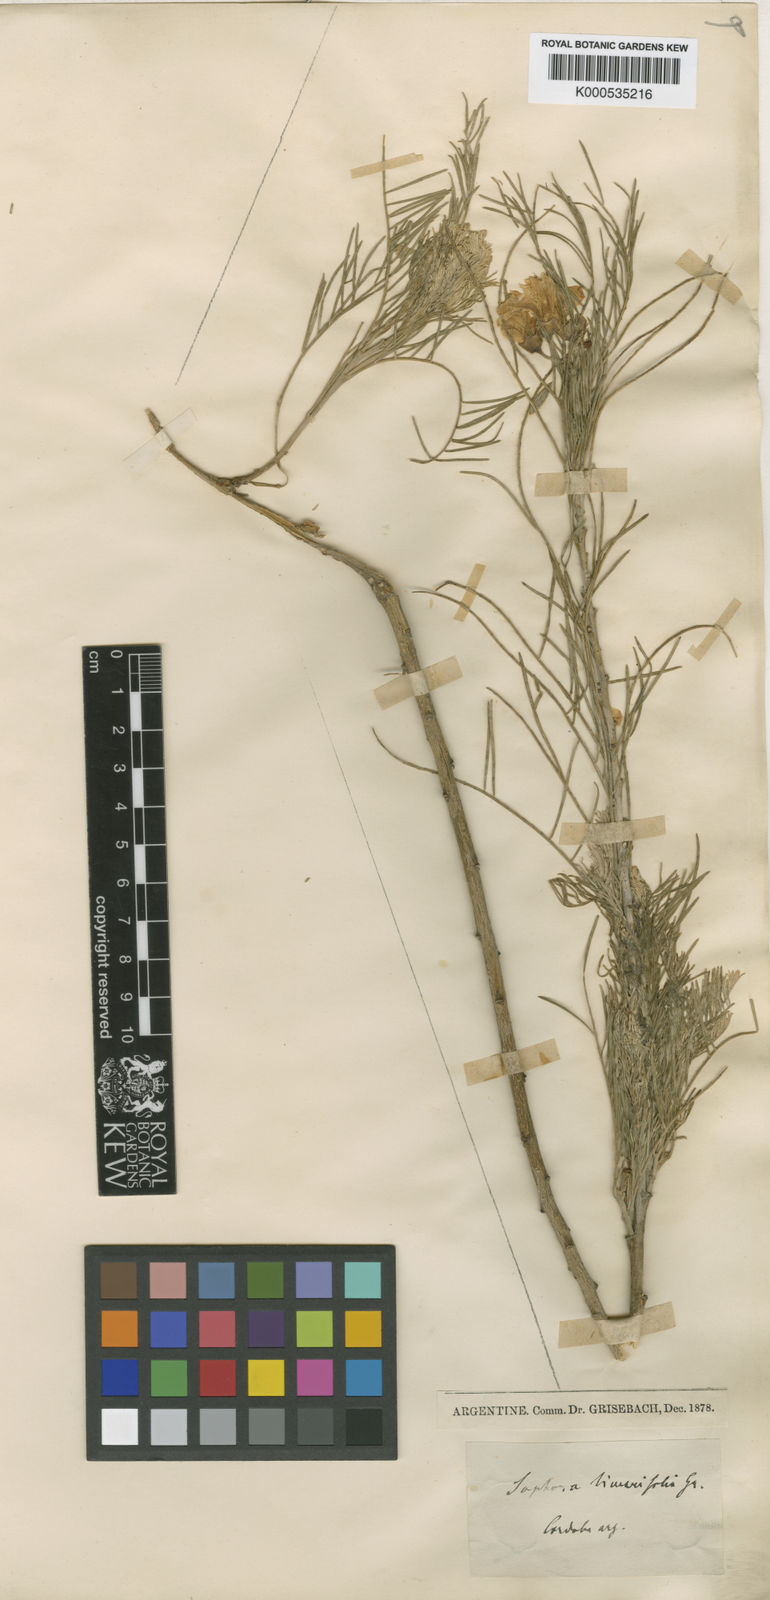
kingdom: Plantae
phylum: Tracheophyta
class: Magnoliopsida
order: Fabales
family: Fabaceae
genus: Sophora
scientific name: Sophora linearifolia
